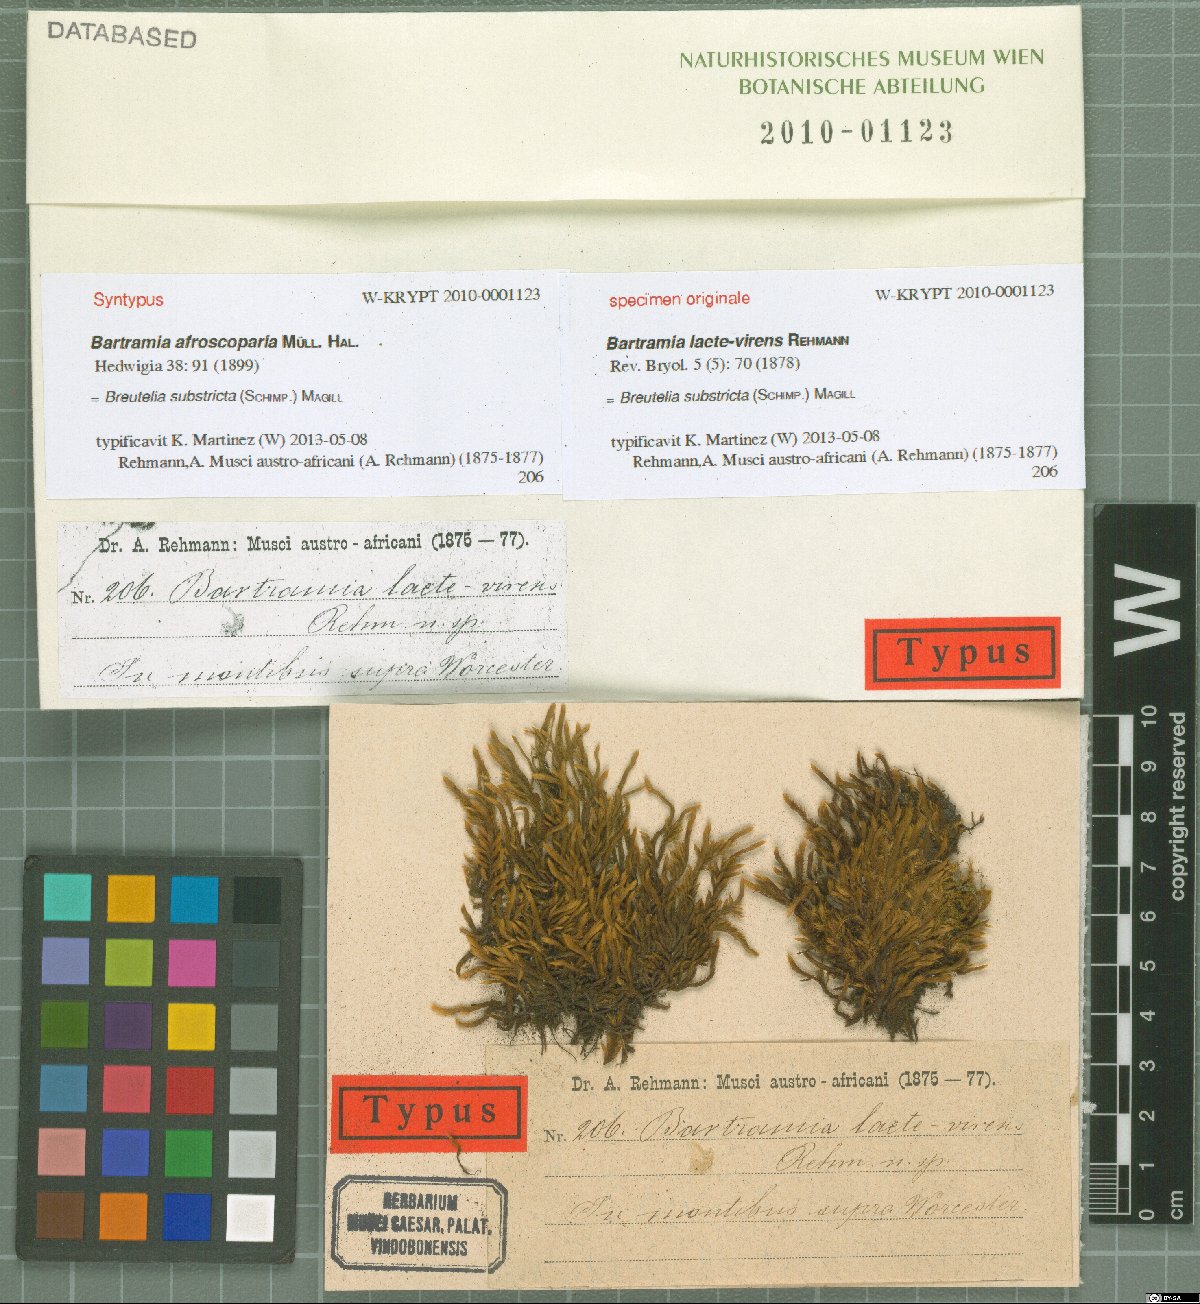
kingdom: Plantae
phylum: Bryophyta
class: Bryopsida
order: Bartramiales
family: Bartramiaceae
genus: Breutelia
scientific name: Breutelia substricta
